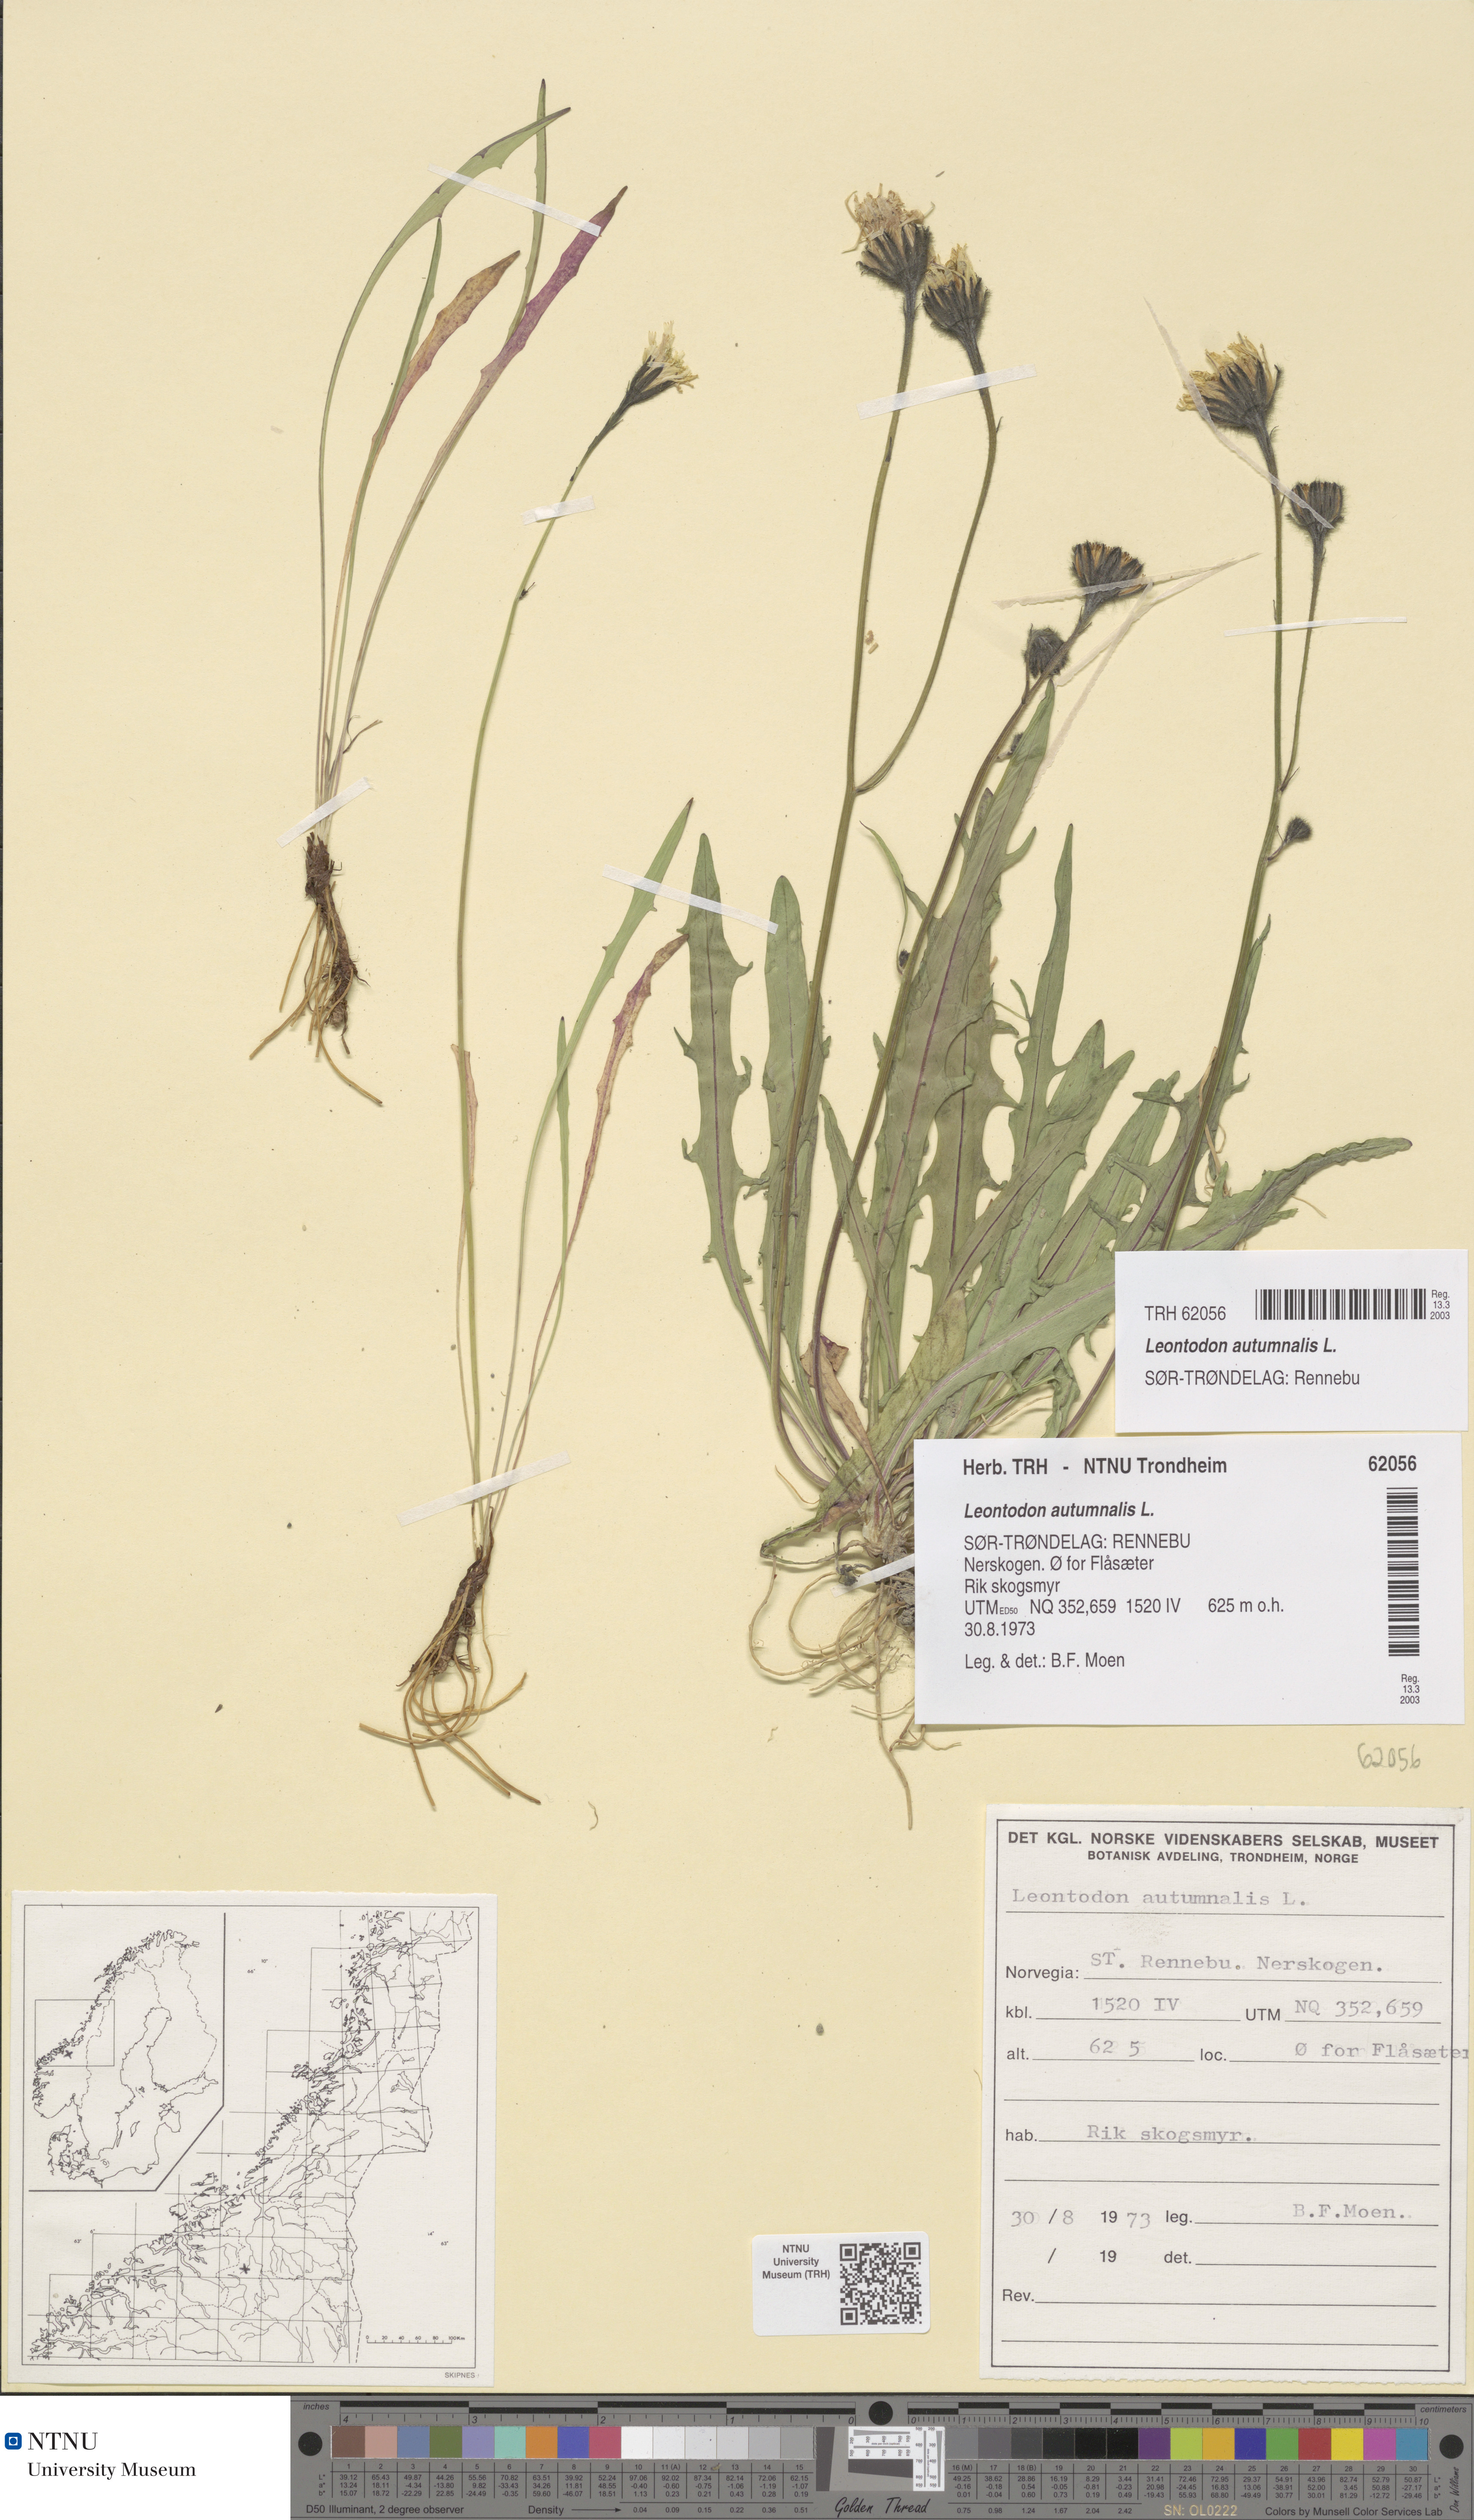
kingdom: Plantae
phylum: Tracheophyta
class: Magnoliopsida
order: Asterales
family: Asteraceae
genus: Scorzoneroides
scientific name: Scorzoneroides autumnalis
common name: Autumn hawkbit
